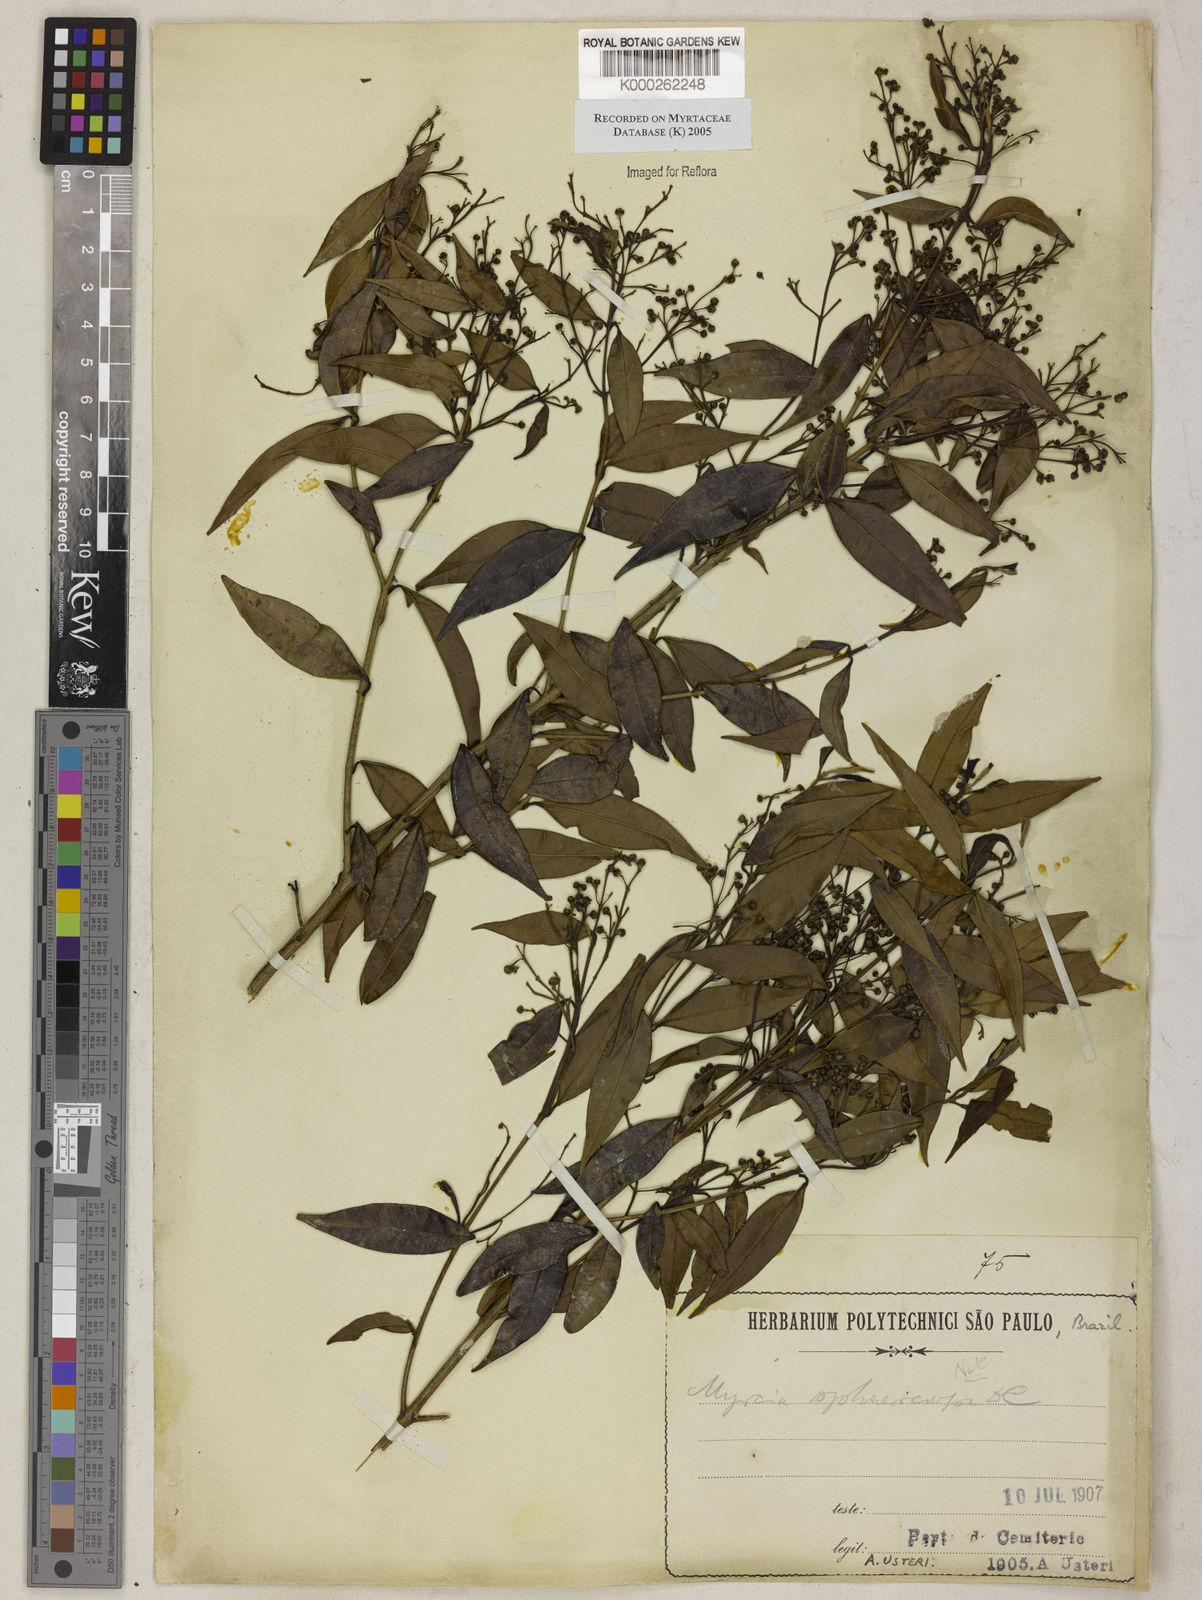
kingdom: Plantae
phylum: Tracheophyta
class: Magnoliopsida
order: Myrtales
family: Myrtaceae
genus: Myrcia
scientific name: Myrcia splendens
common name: Surinam cherry
